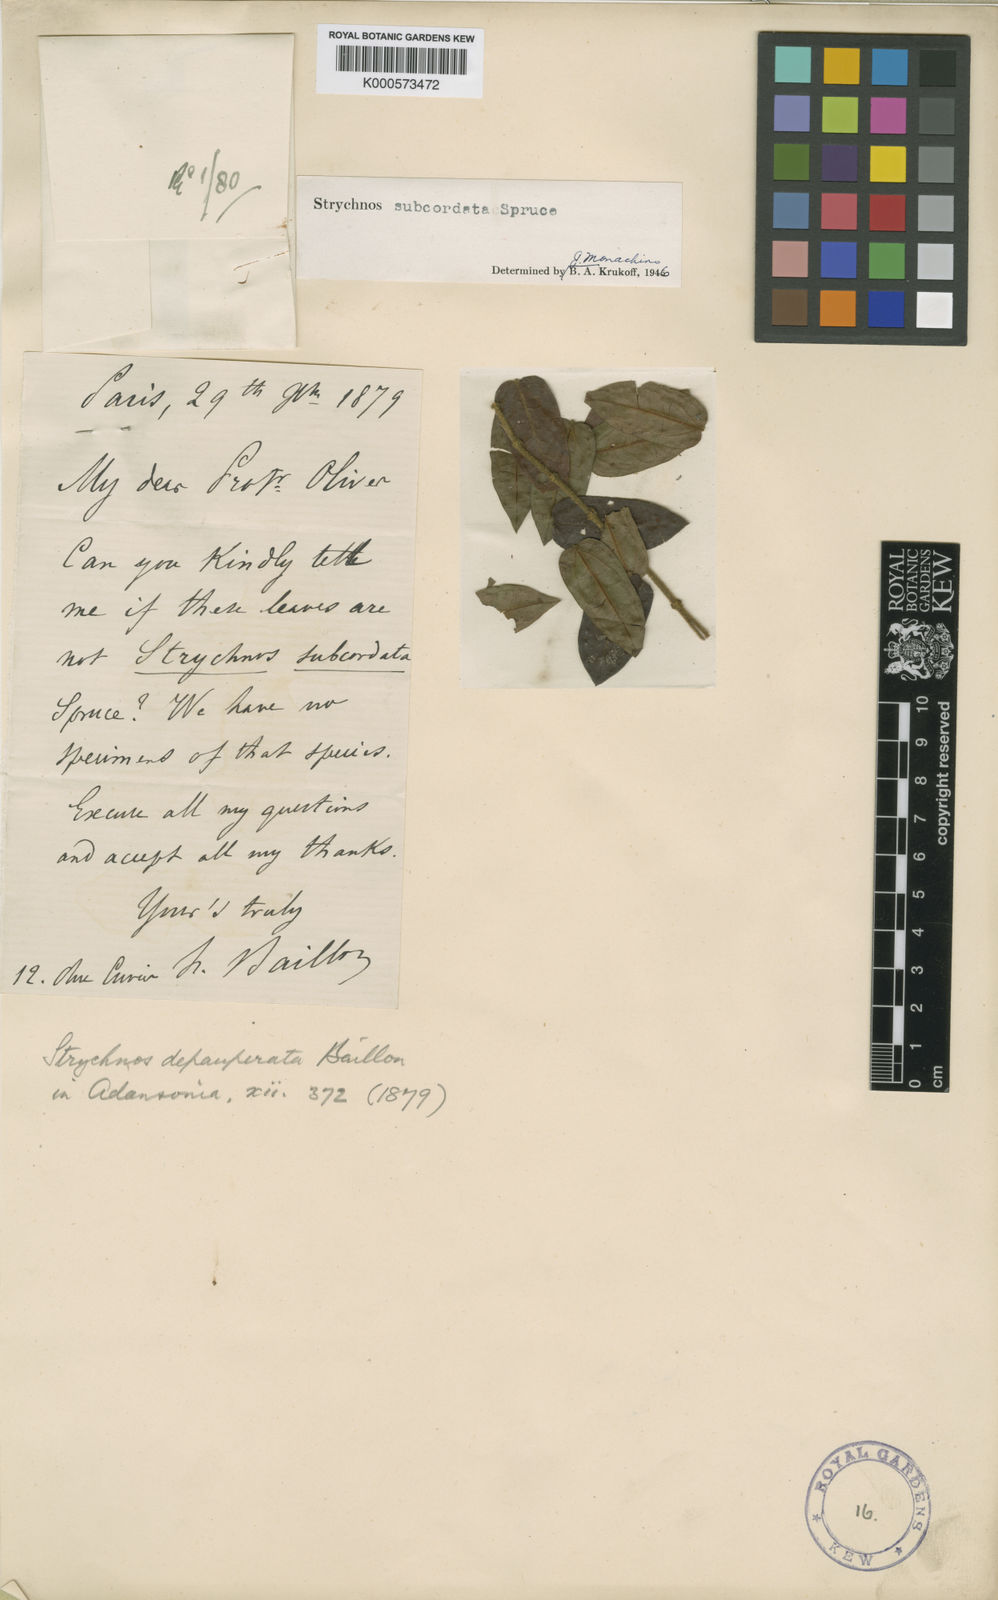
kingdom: Plantae
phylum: Tracheophyta
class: Magnoliopsida
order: Gentianales
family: Loganiaceae
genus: Strychnos
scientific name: Strychnos subcordata
